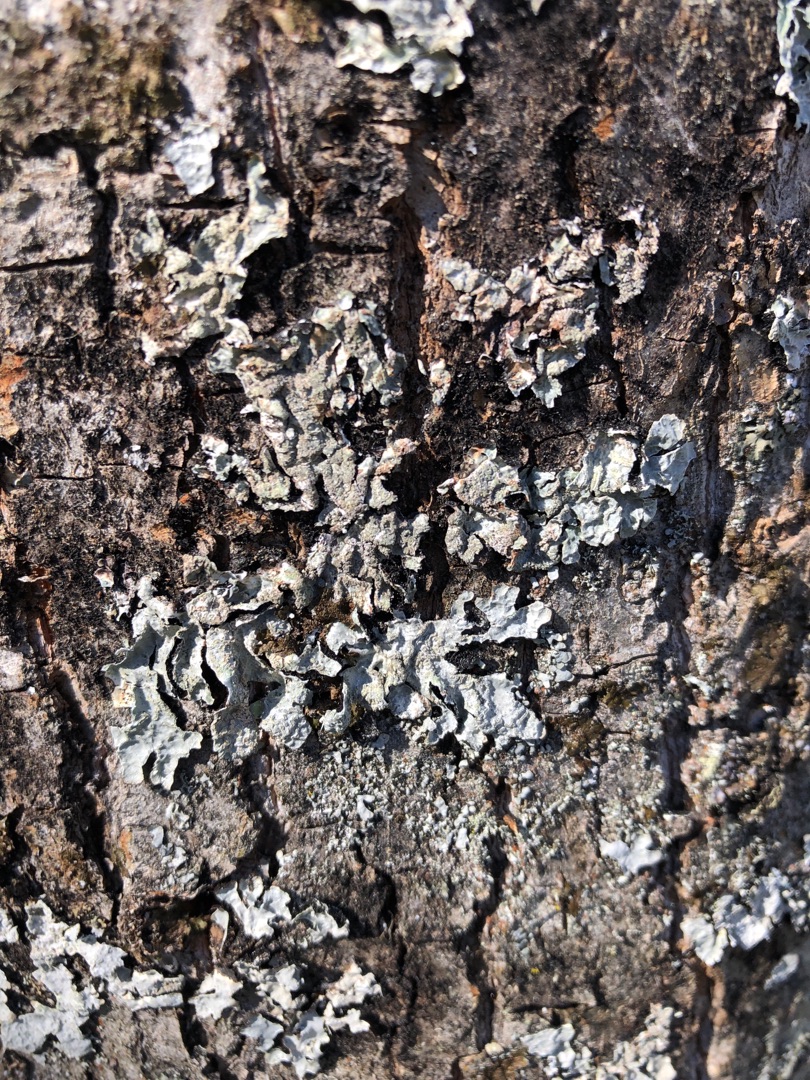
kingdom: Fungi
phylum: Ascomycota
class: Lecanoromycetes
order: Lecanorales
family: Parmeliaceae
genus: Parmelia
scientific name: Parmelia sulcata
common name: Rynket skållav
